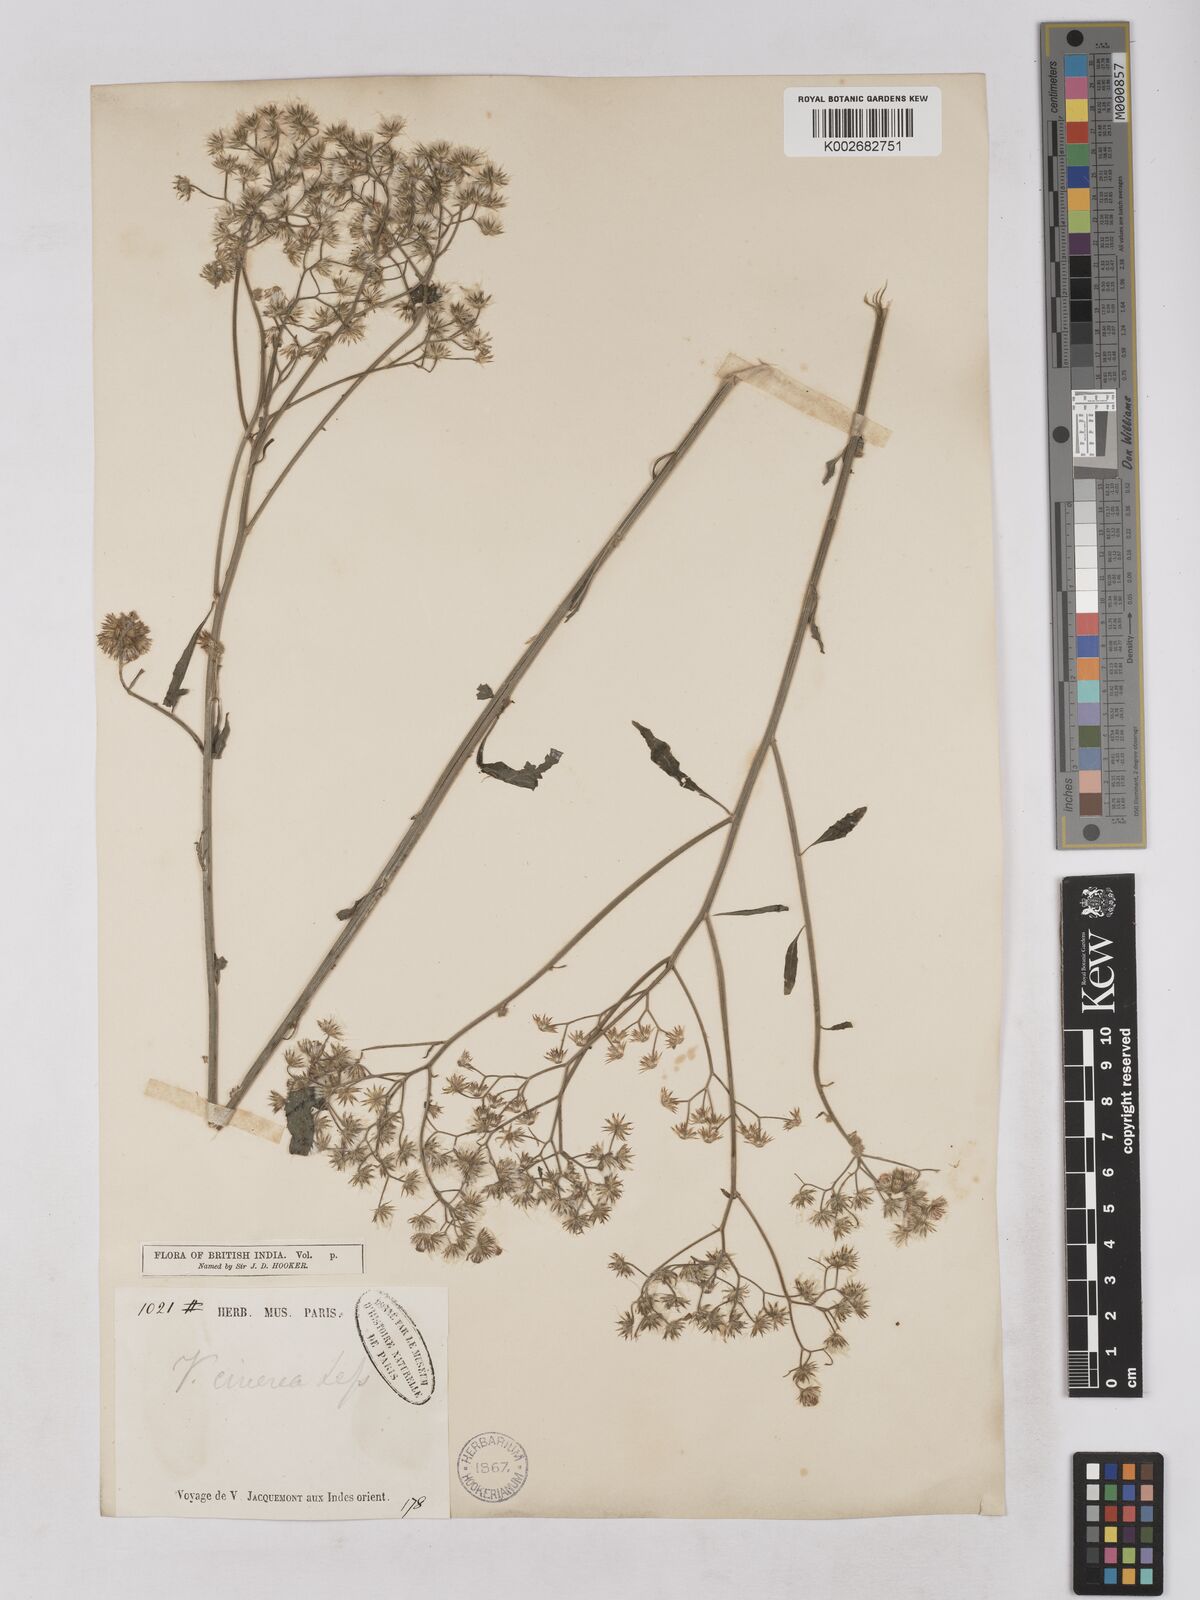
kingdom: Plantae
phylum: Tracheophyta
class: Magnoliopsida
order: Asterales
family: Asteraceae
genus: Cyanthillium
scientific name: Cyanthillium cinereum
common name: Little ironweed
